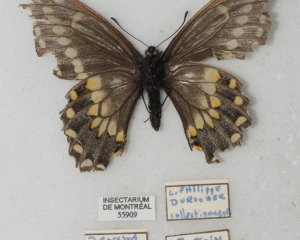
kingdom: Animalia
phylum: Arthropoda
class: Insecta
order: Lepidoptera
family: Papilionidae
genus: Papilio
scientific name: Papilio polyxenes
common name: Black Swallowtail
